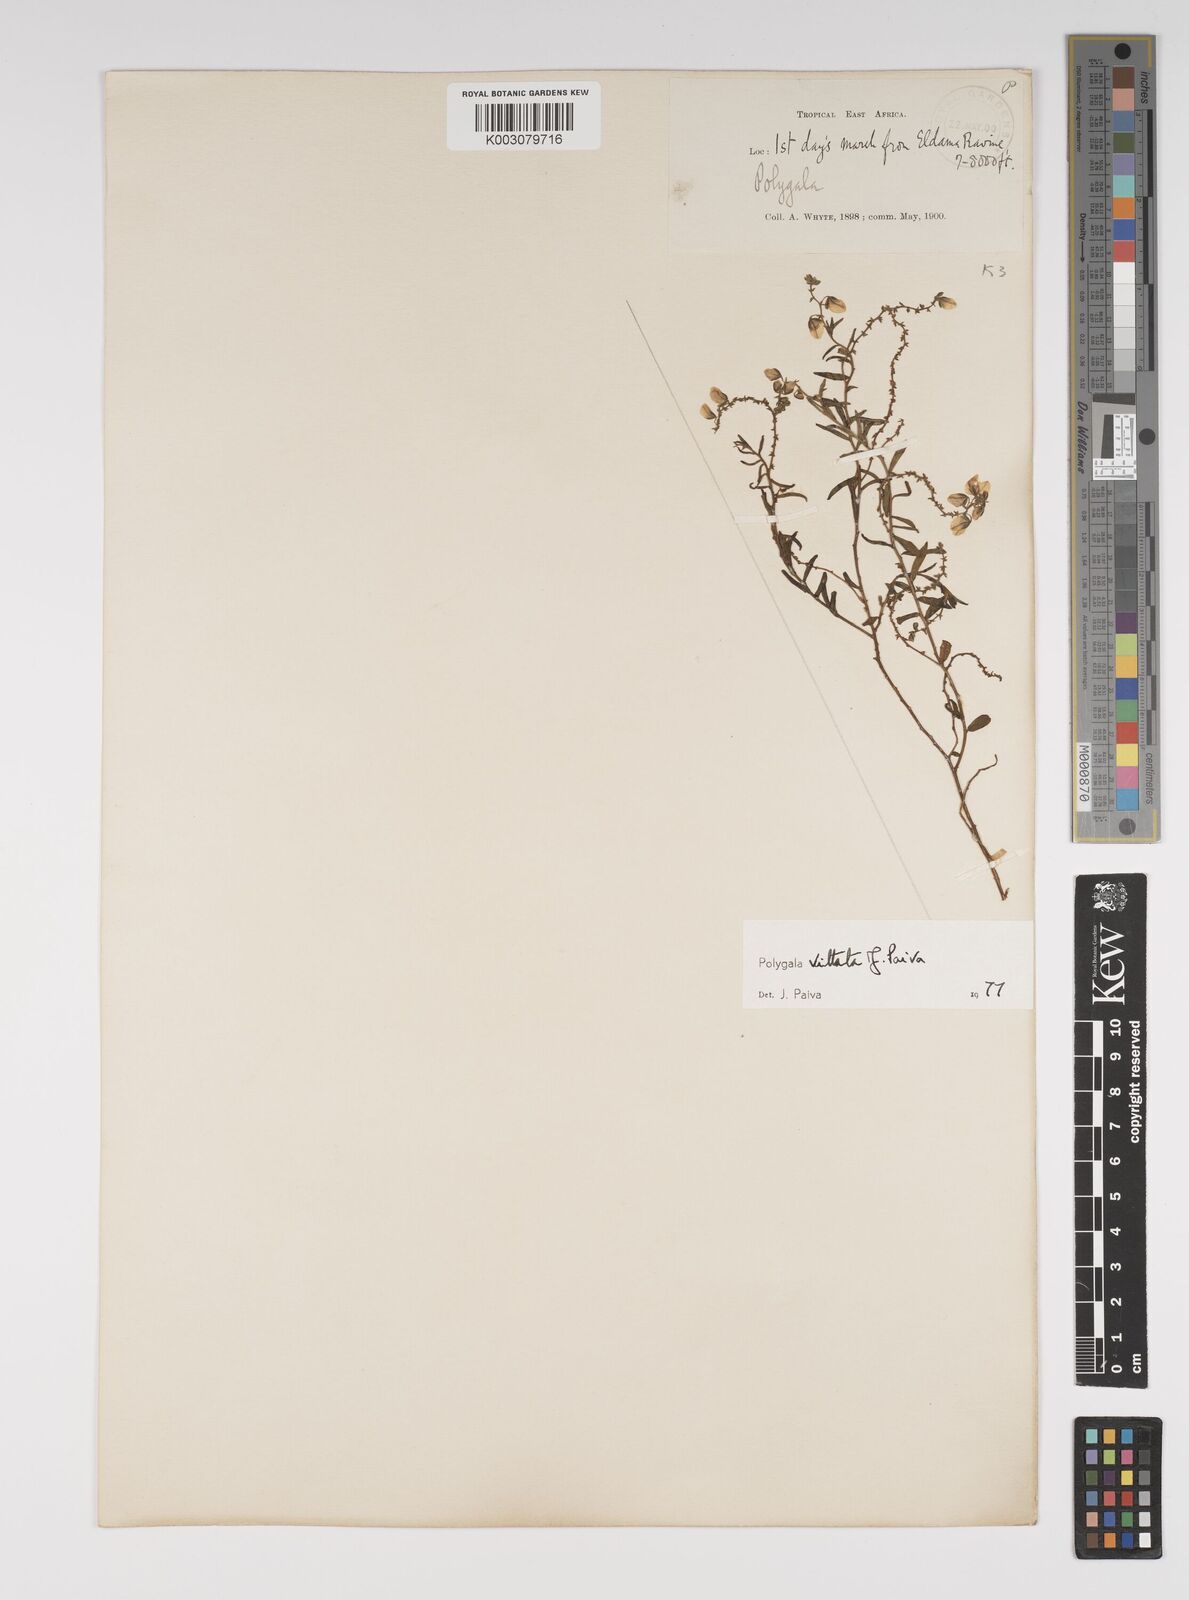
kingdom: Plantae
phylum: Tracheophyta
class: Magnoliopsida
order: Fabales
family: Polygalaceae
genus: Polygala
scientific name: Polygala vittata
